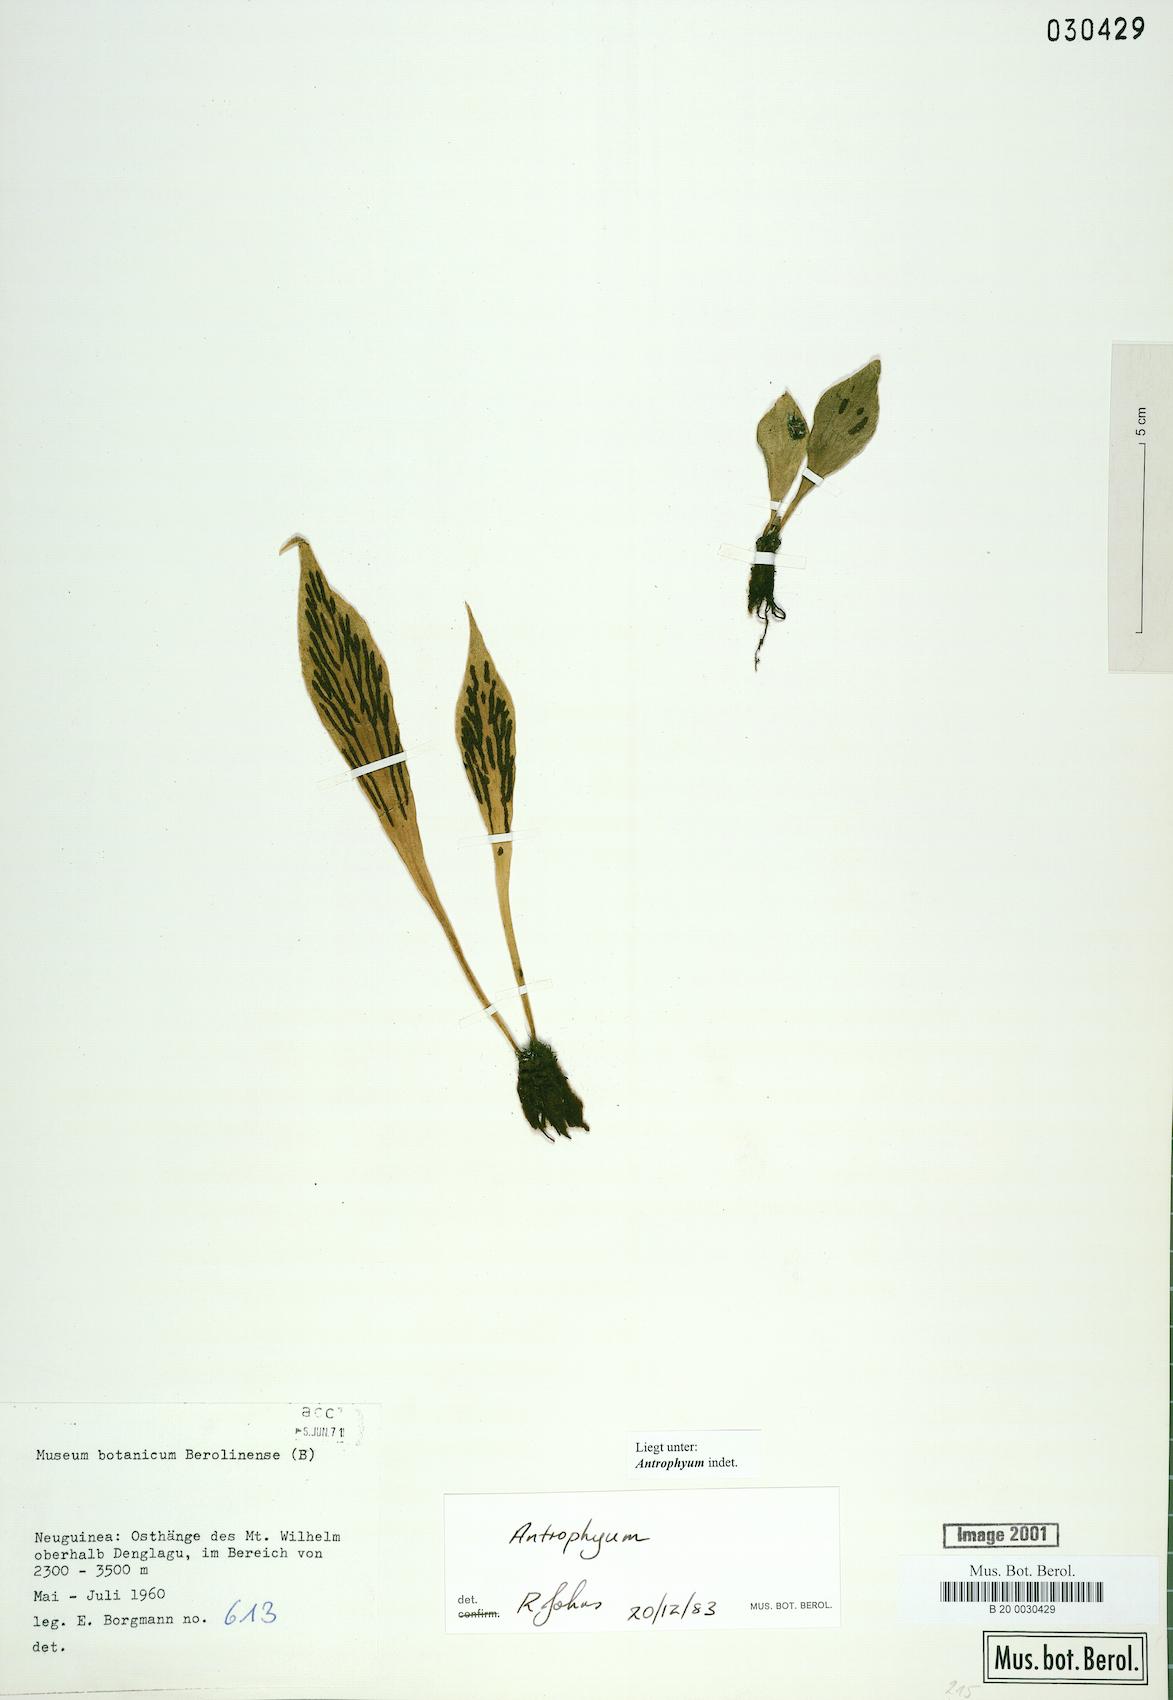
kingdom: Plantae
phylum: Tracheophyta
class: Polypodiopsida
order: Polypodiales
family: Pteridaceae
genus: Antrophyum
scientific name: Antrophyum
